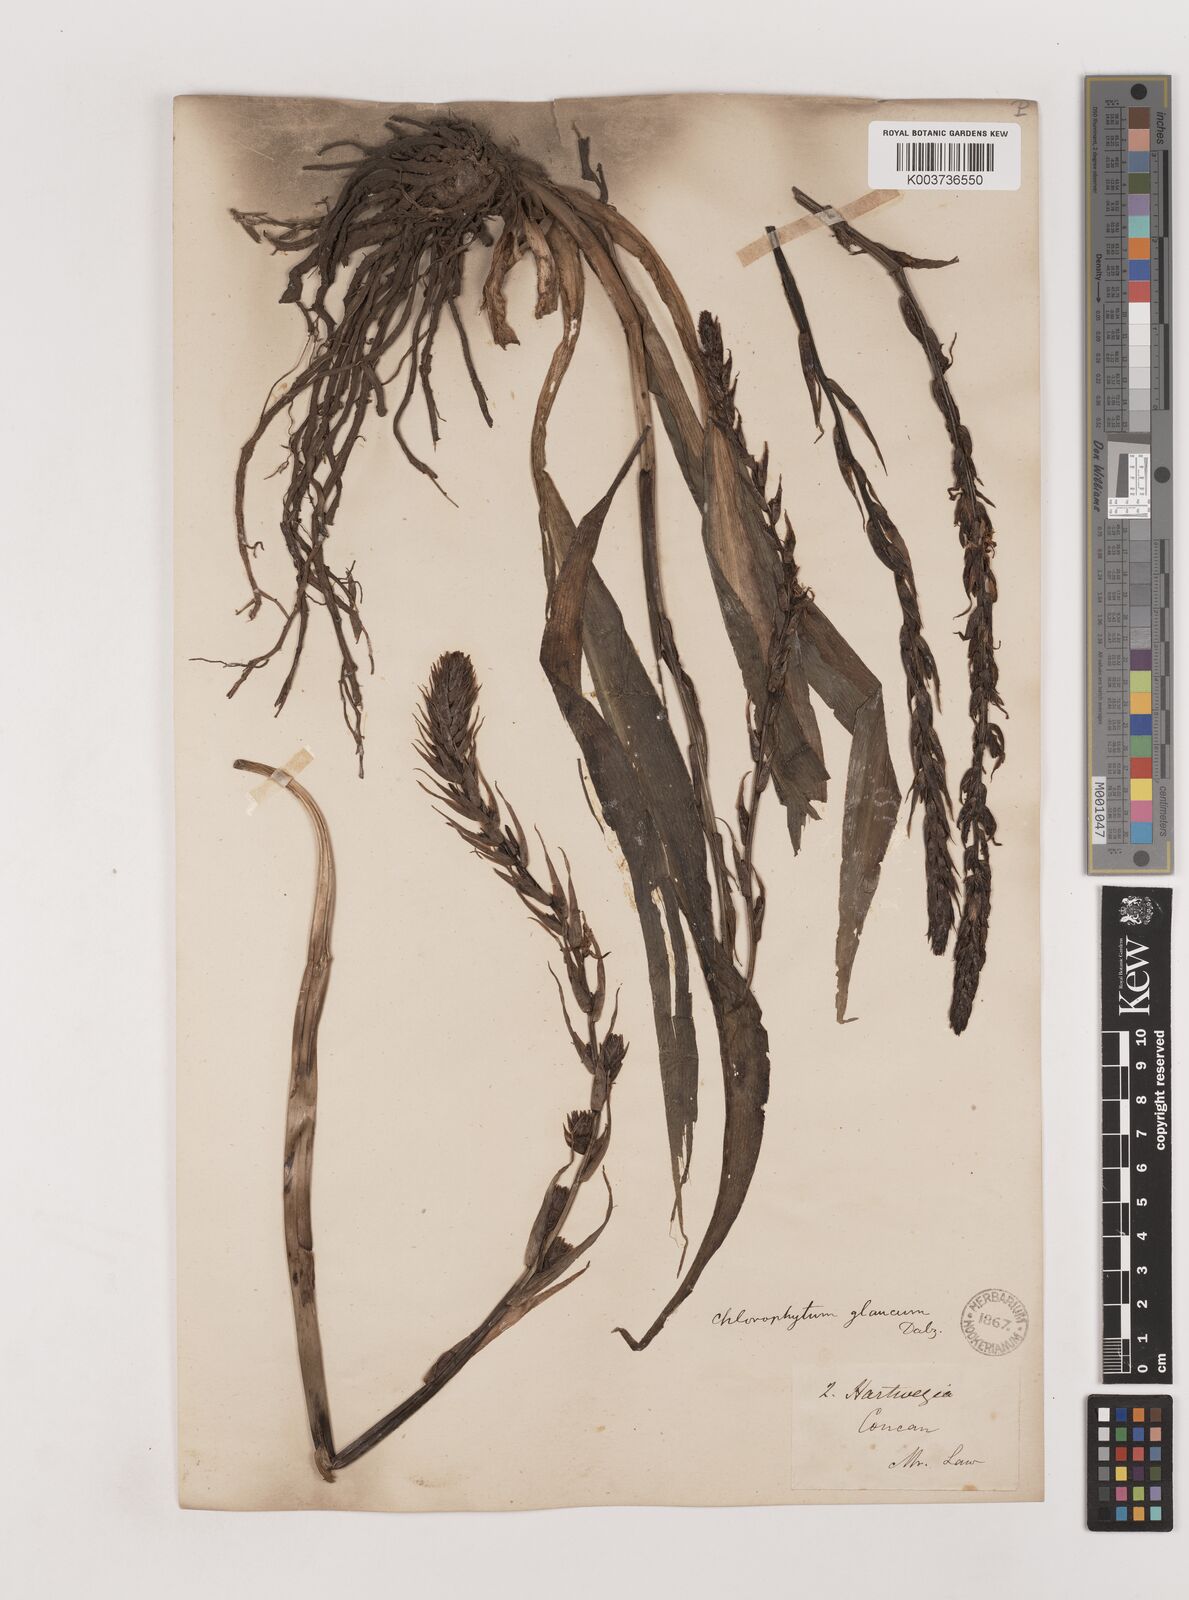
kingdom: Plantae
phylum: Tracheophyta
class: Liliopsida
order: Asparagales
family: Asparagaceae
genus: Chlorophytum
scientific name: Chlorophytum glaucum
